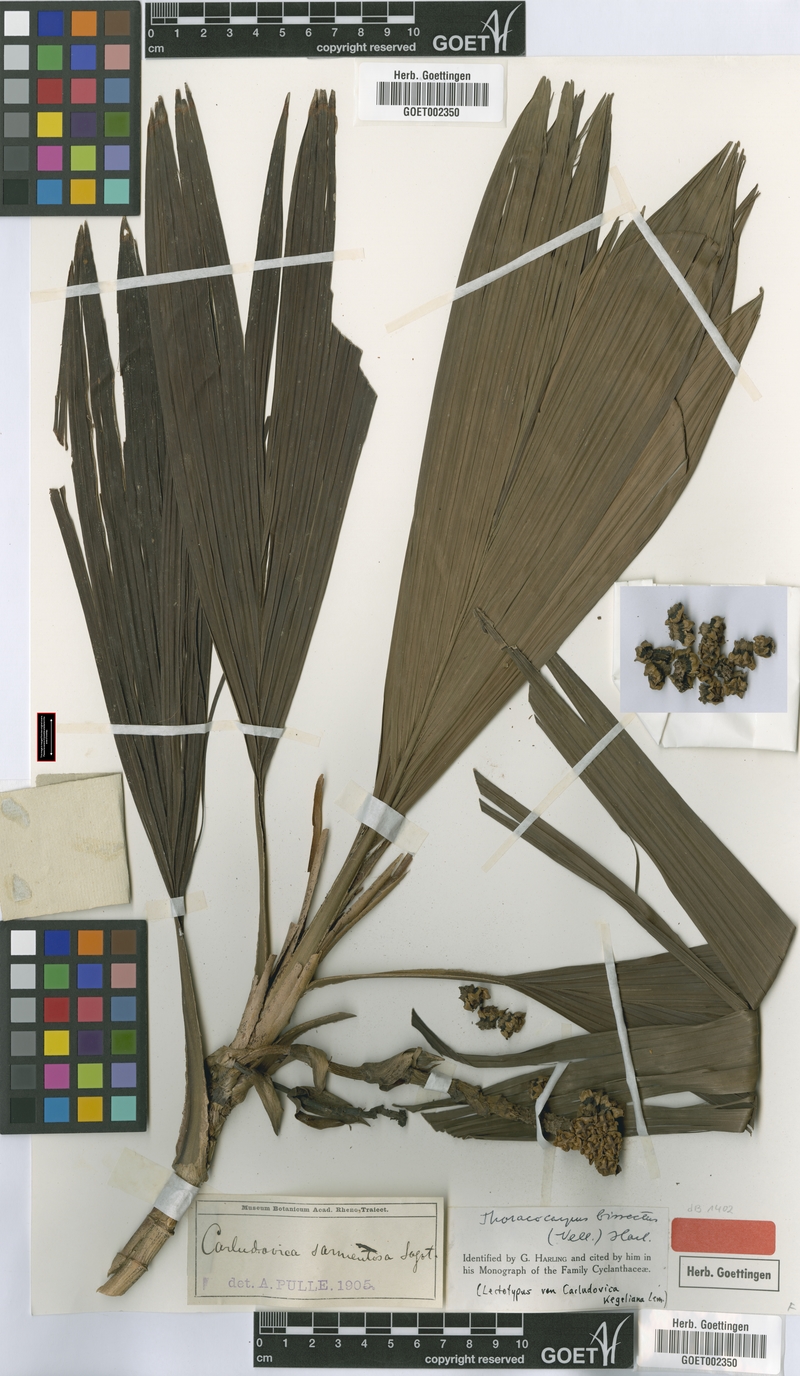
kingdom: Plantae
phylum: Tracheophyta
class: Liliopsida
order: Pandanales
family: Cyclanthaceae
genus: Thoracocarpus
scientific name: Thoracocarpus bissectus
